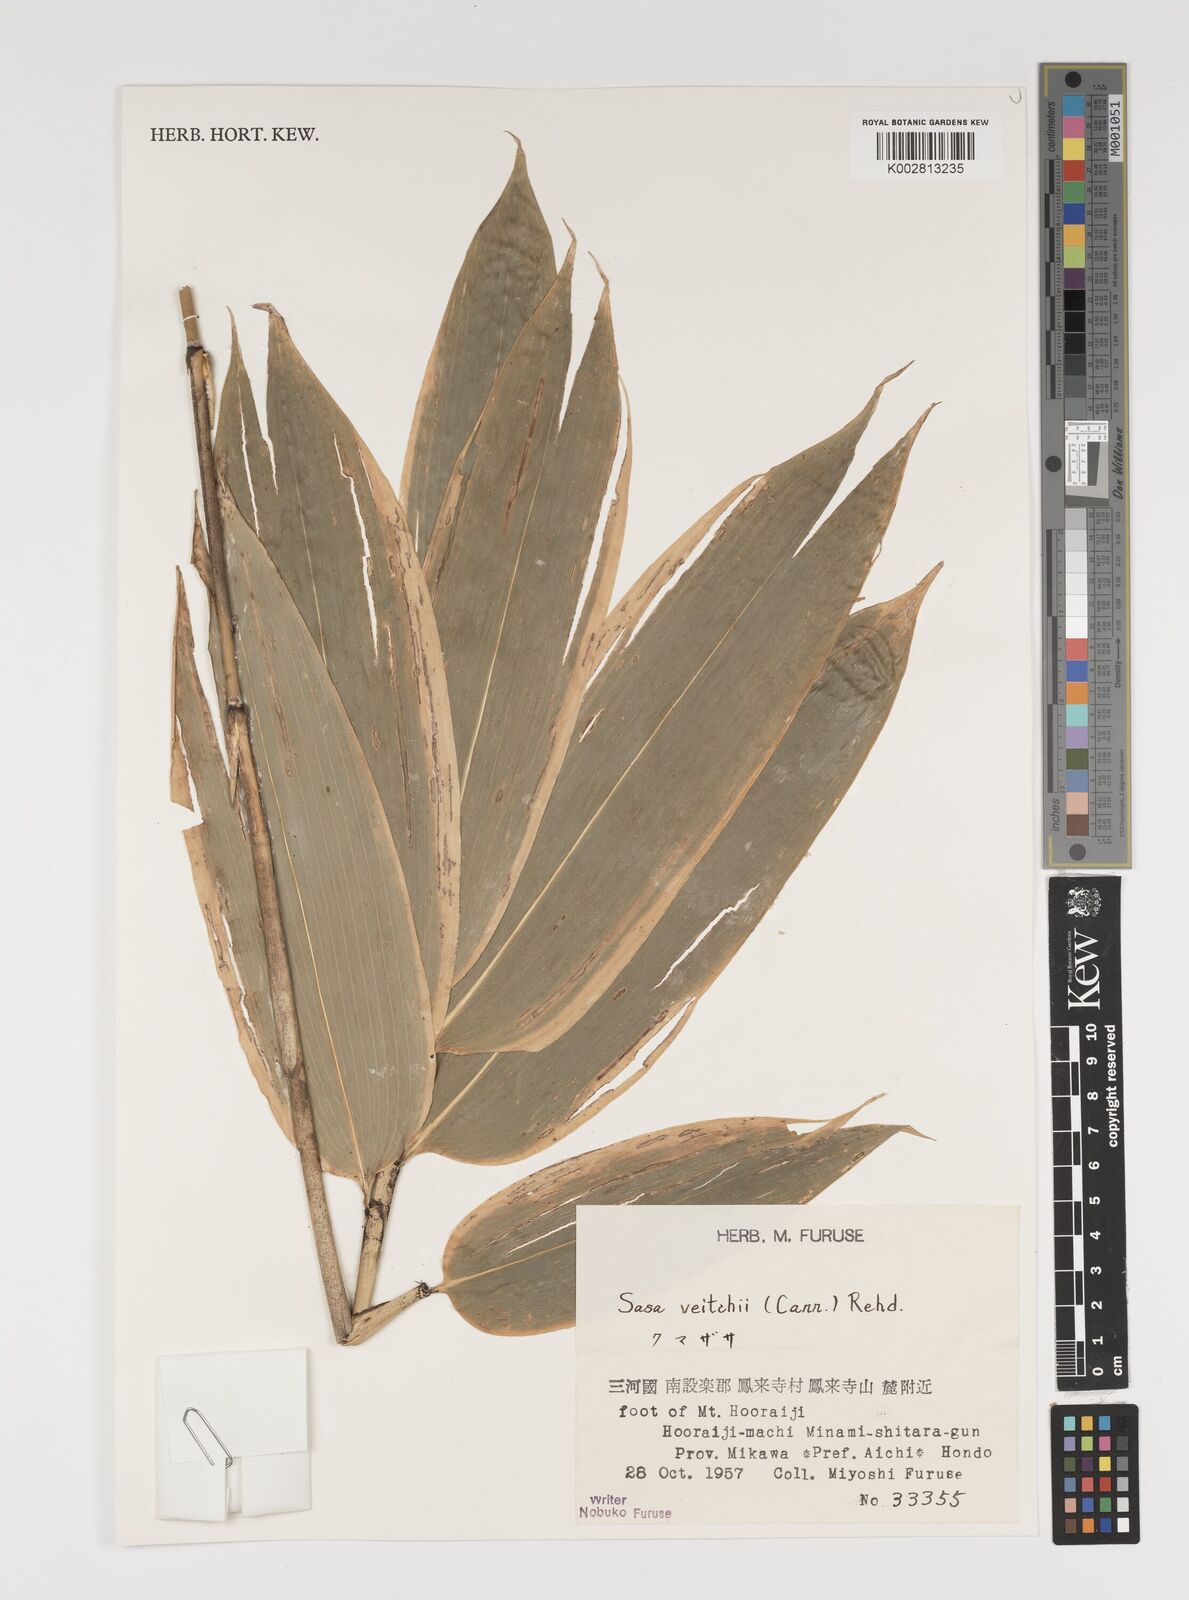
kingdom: Plantae
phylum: Tracheophyta
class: Liliopsida
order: Poales
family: Poaceae
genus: Sasa
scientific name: Sasa veitchii
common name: Veitch's bamboo
